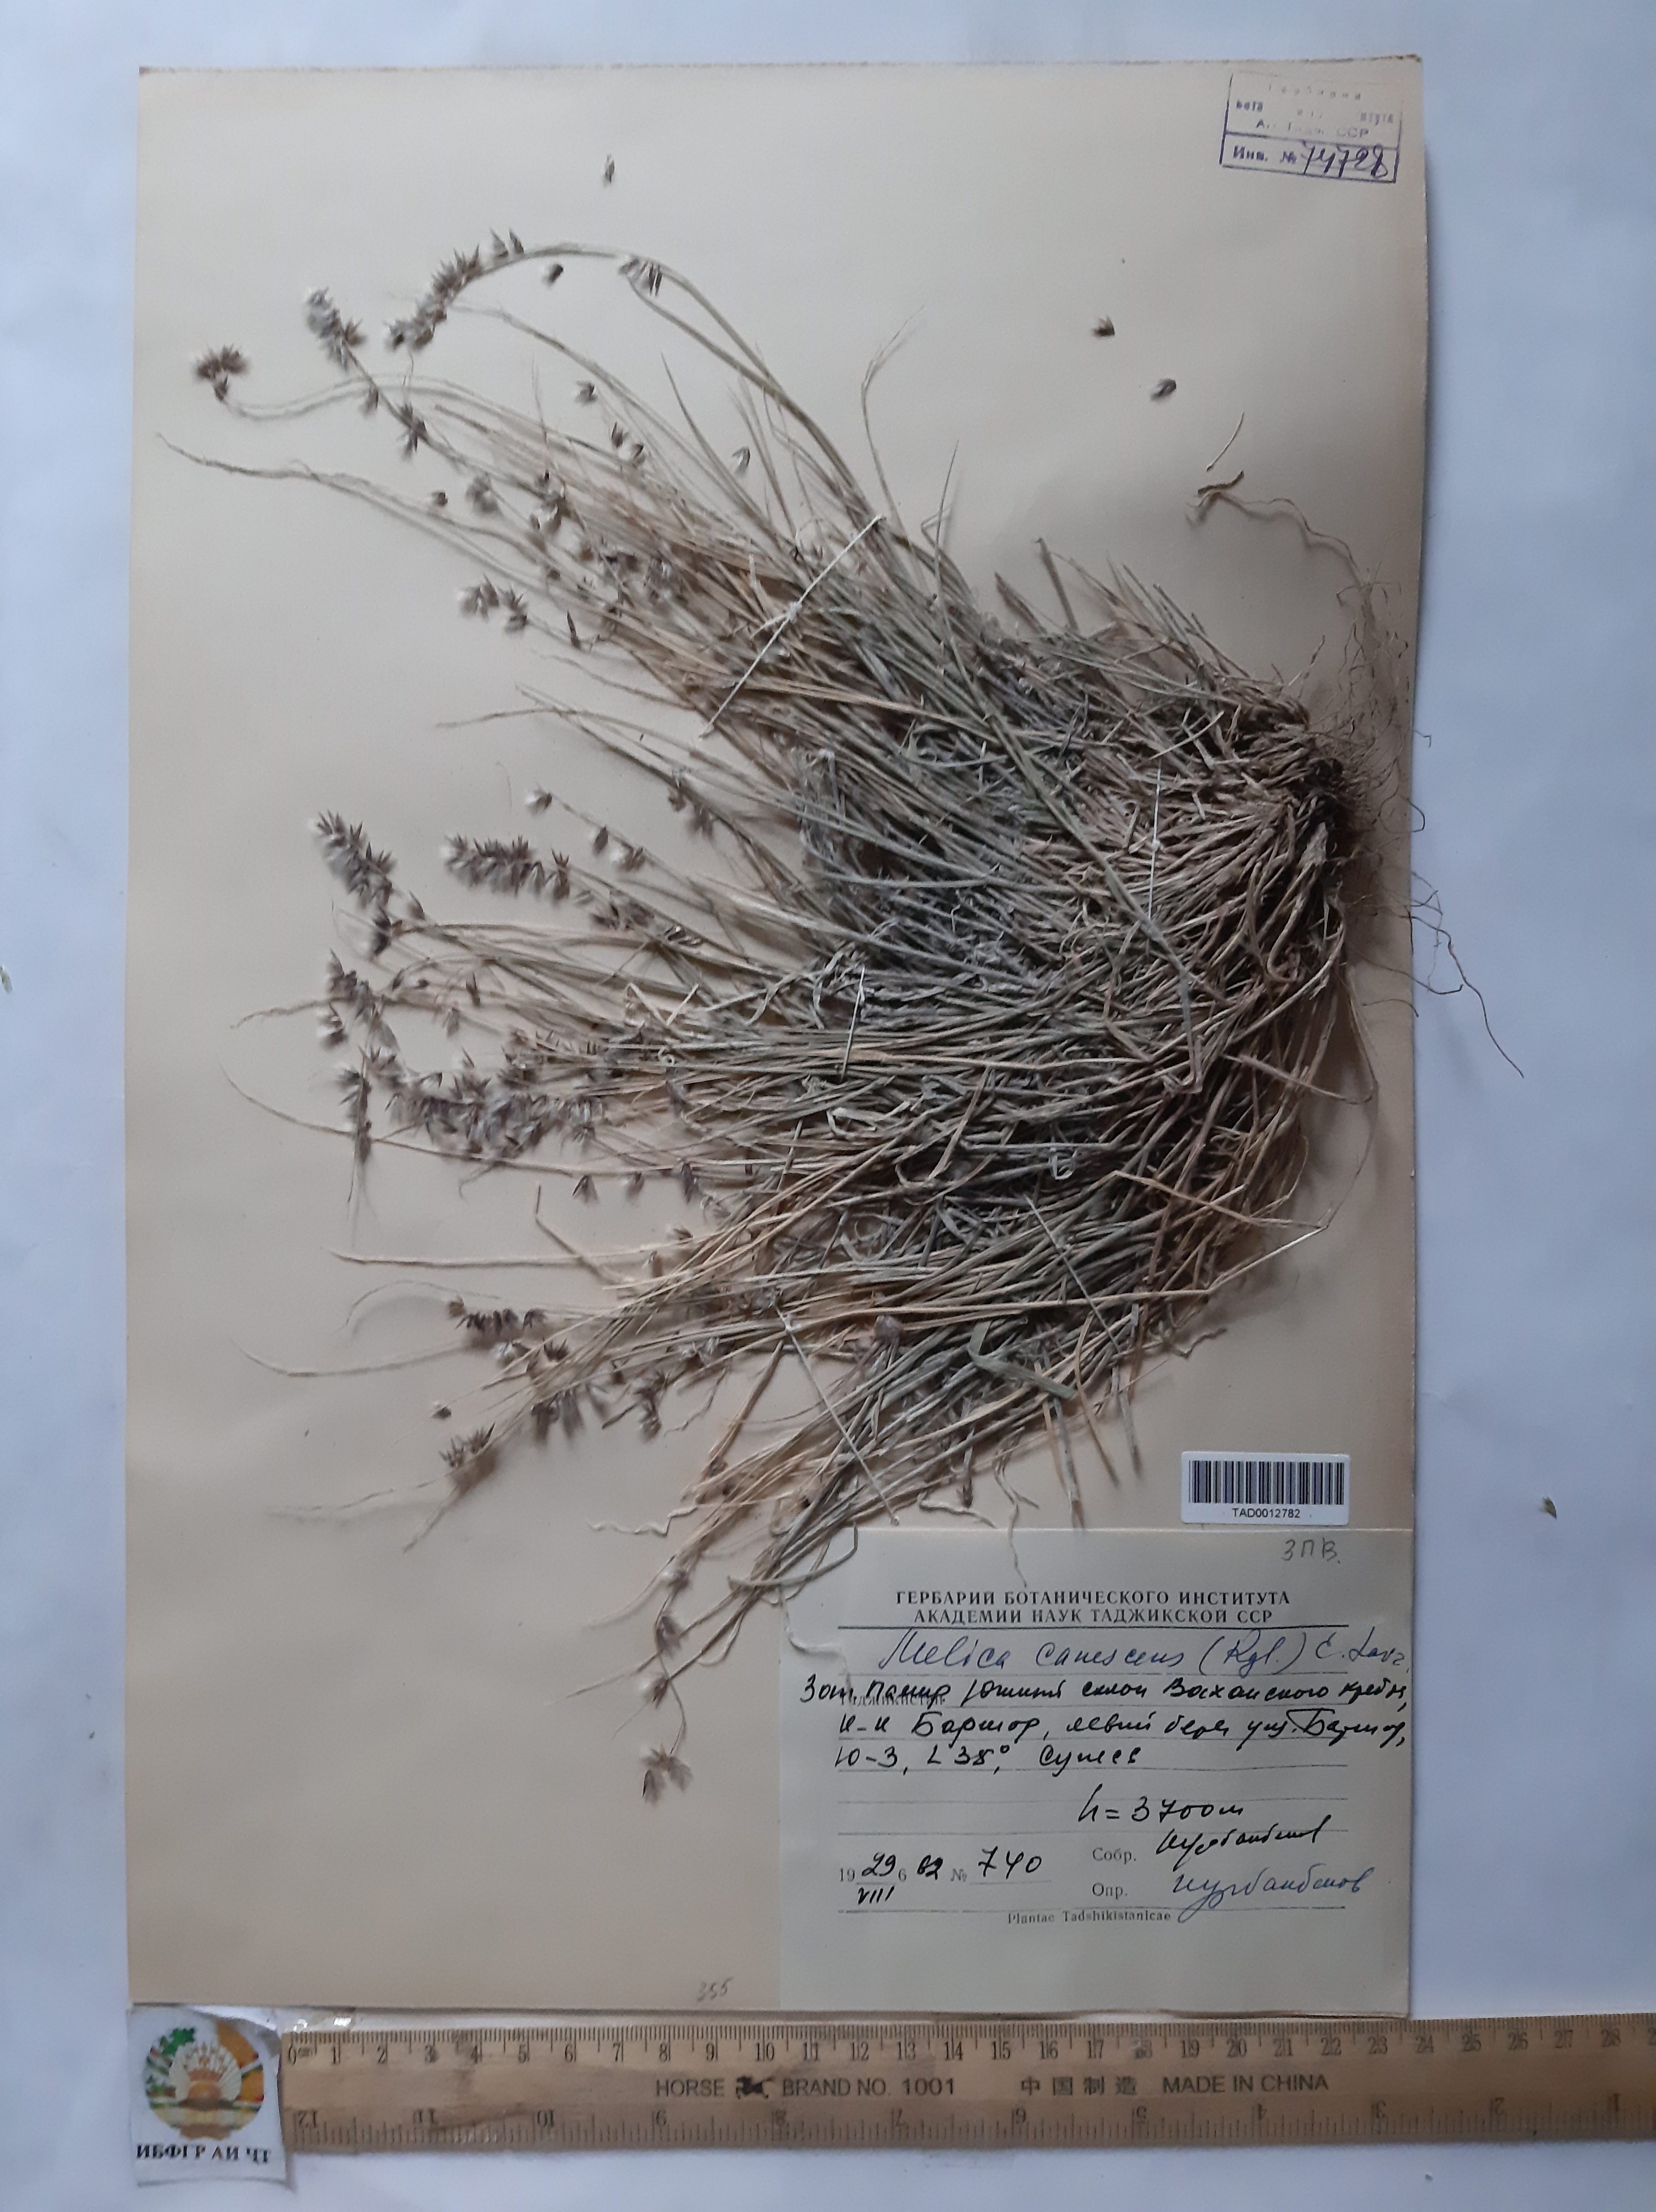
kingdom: Plantae
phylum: Tracheophyta
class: Liliopsida
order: Poales
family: Poaceae
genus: Melica
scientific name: Melica persica
